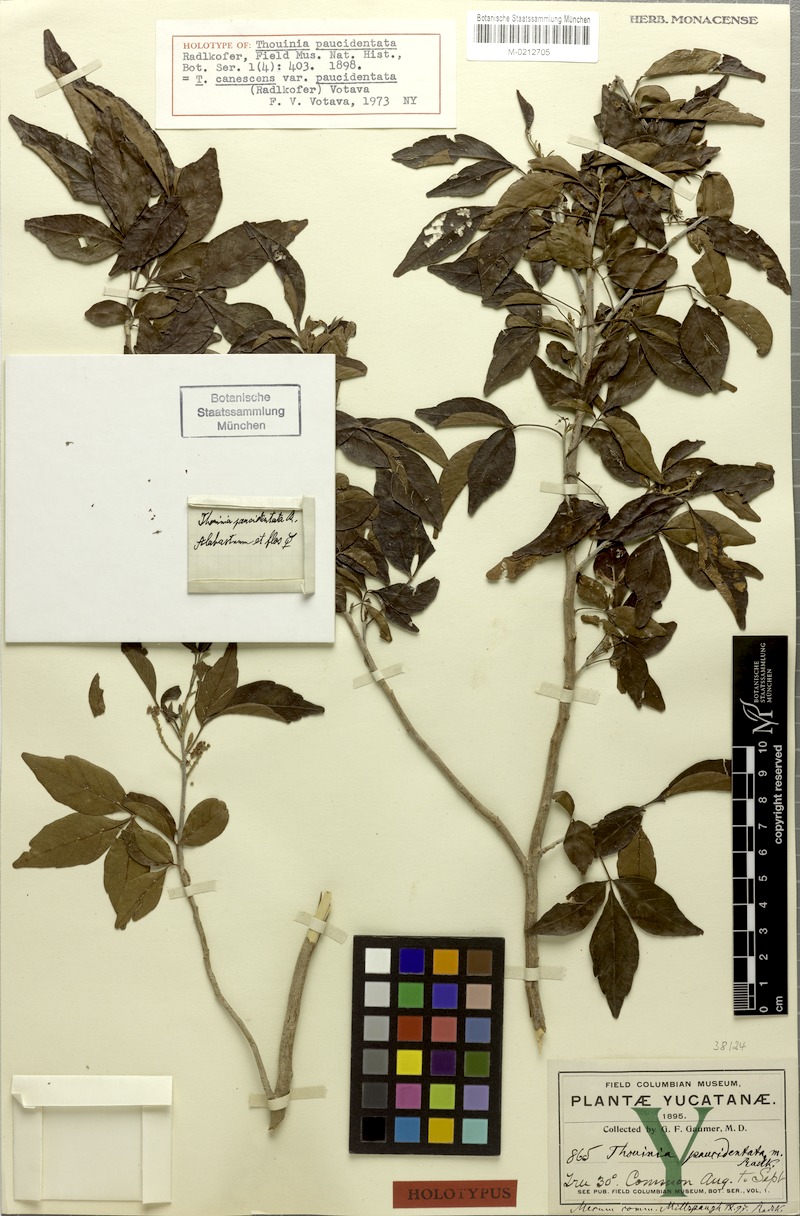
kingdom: Plantae
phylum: Tracheophyta
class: Magnoliopsida
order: Sapindales
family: Sapindaceae
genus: Thouinia
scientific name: Thouinia paucidentata
